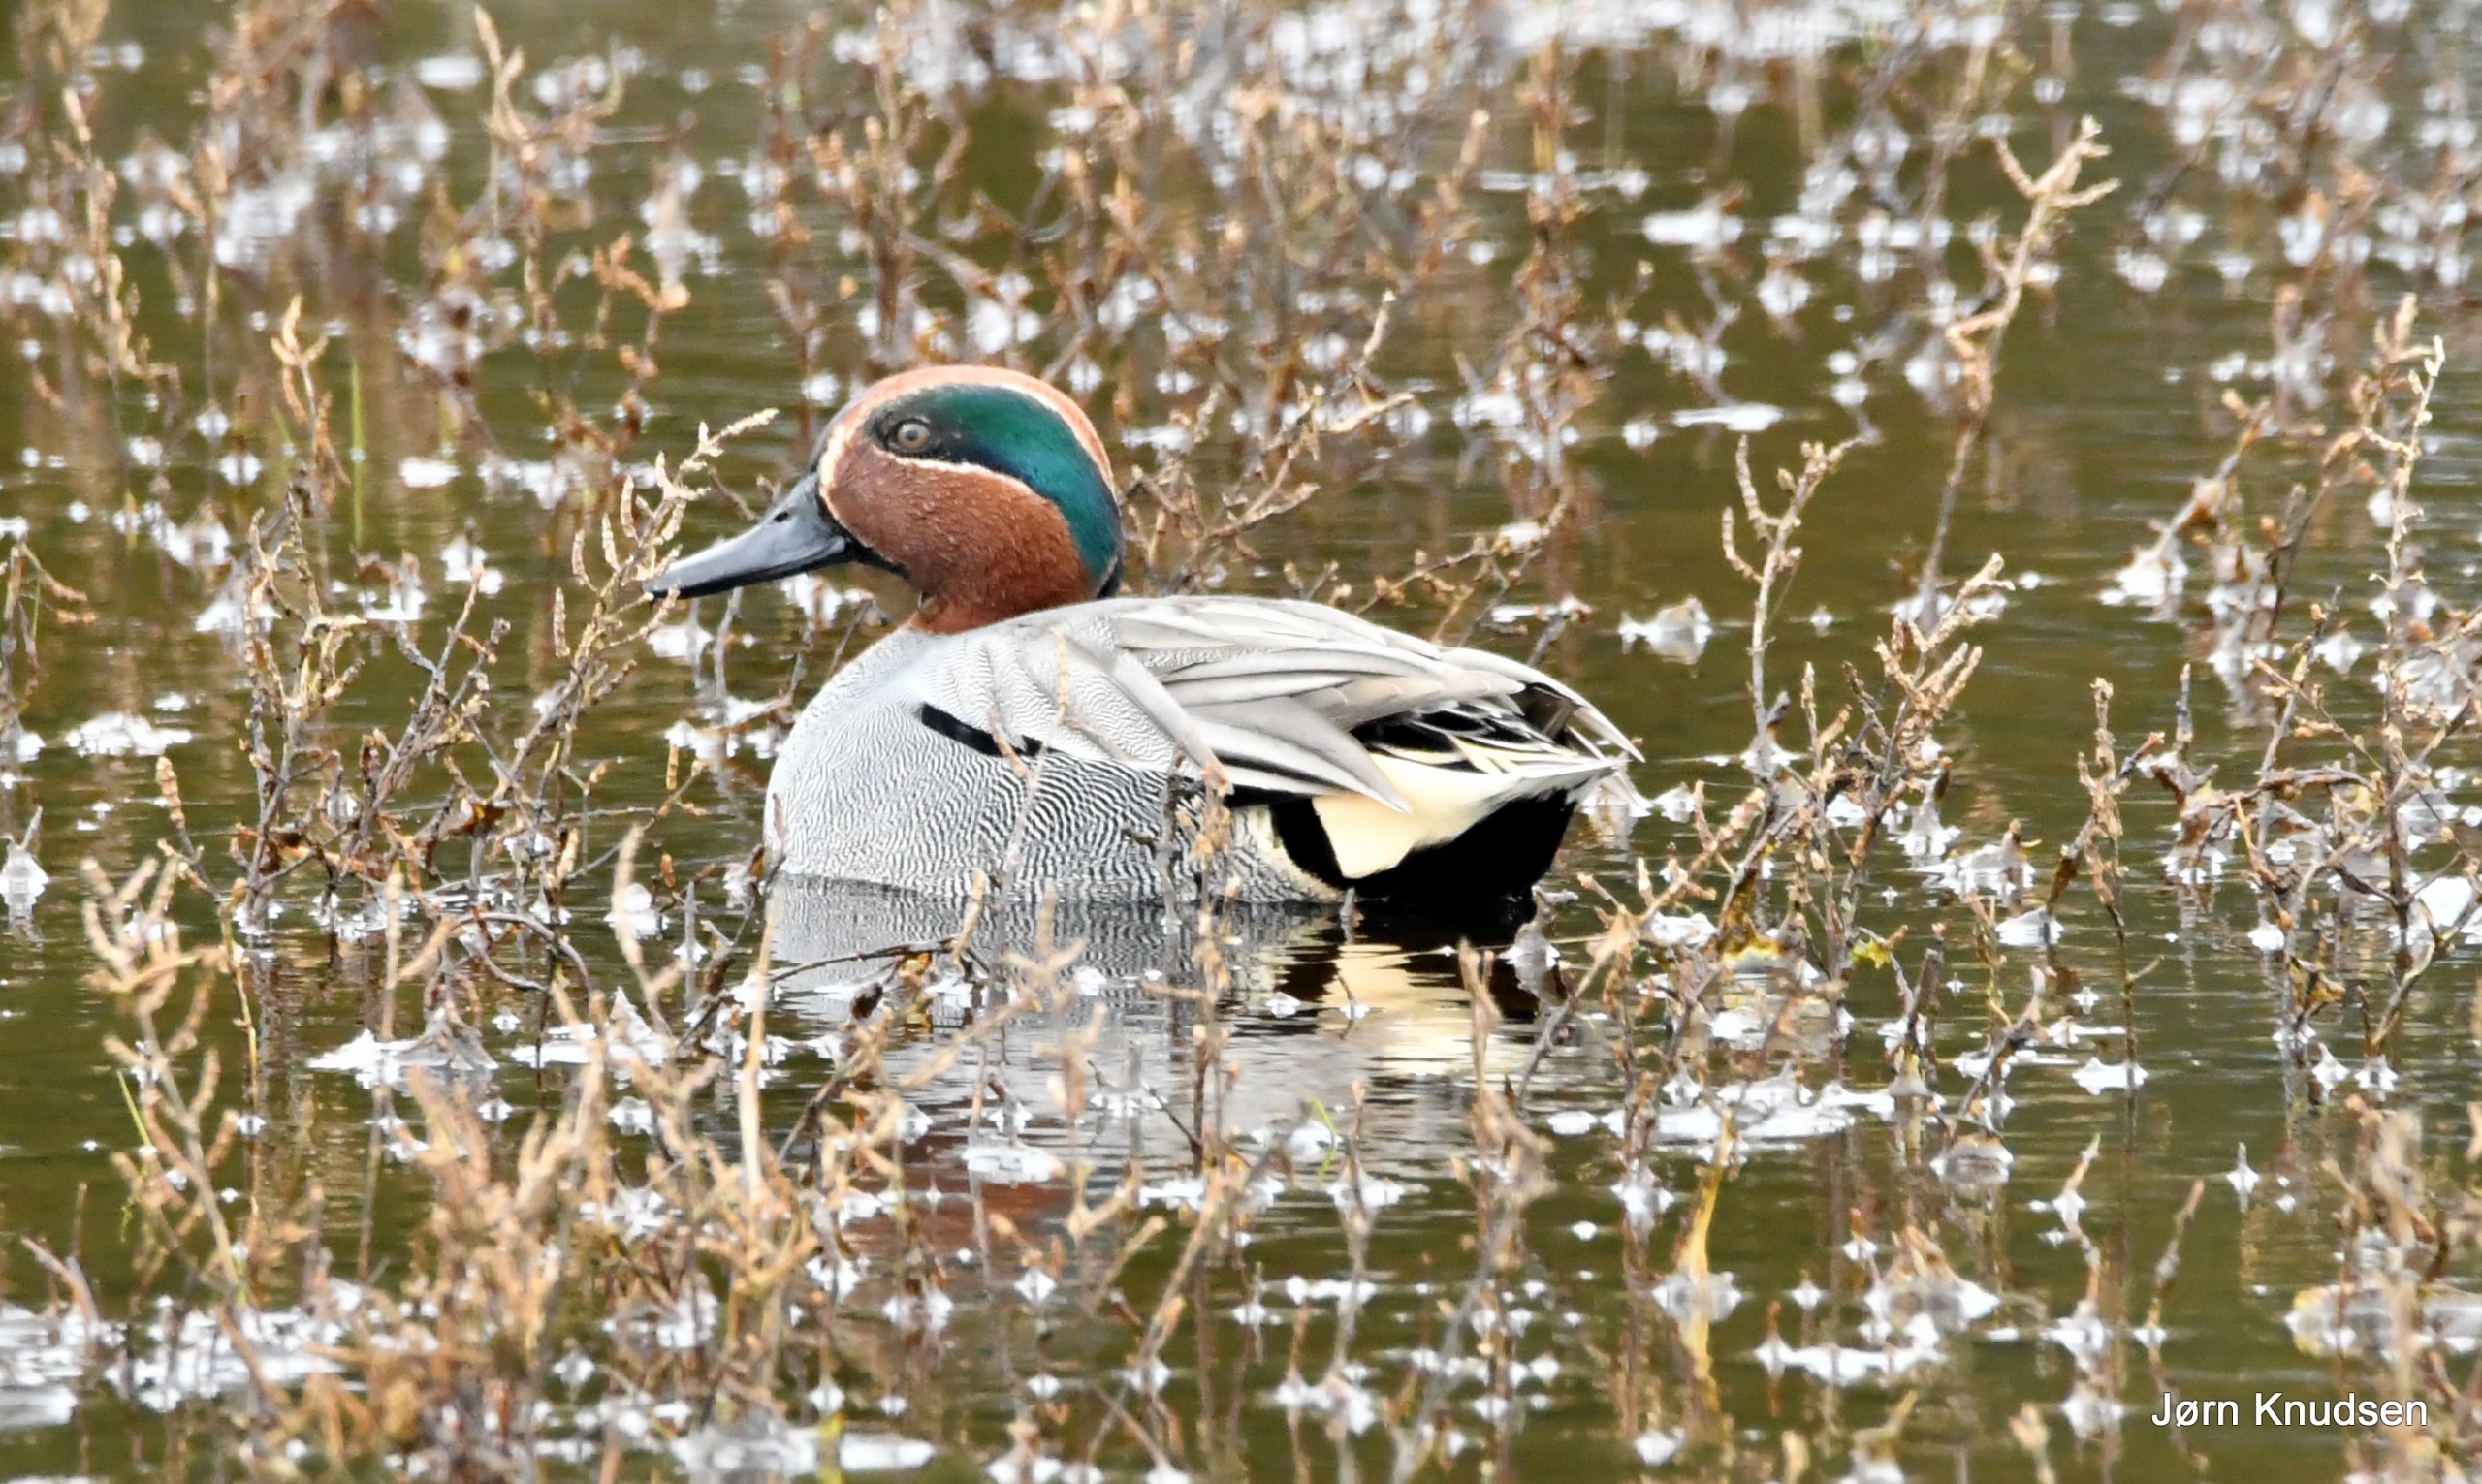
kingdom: Animalia
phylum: Chordata
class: Aves
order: Anseriformes
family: Anatidae
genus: Anas
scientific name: Anas crecca
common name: Krikand
